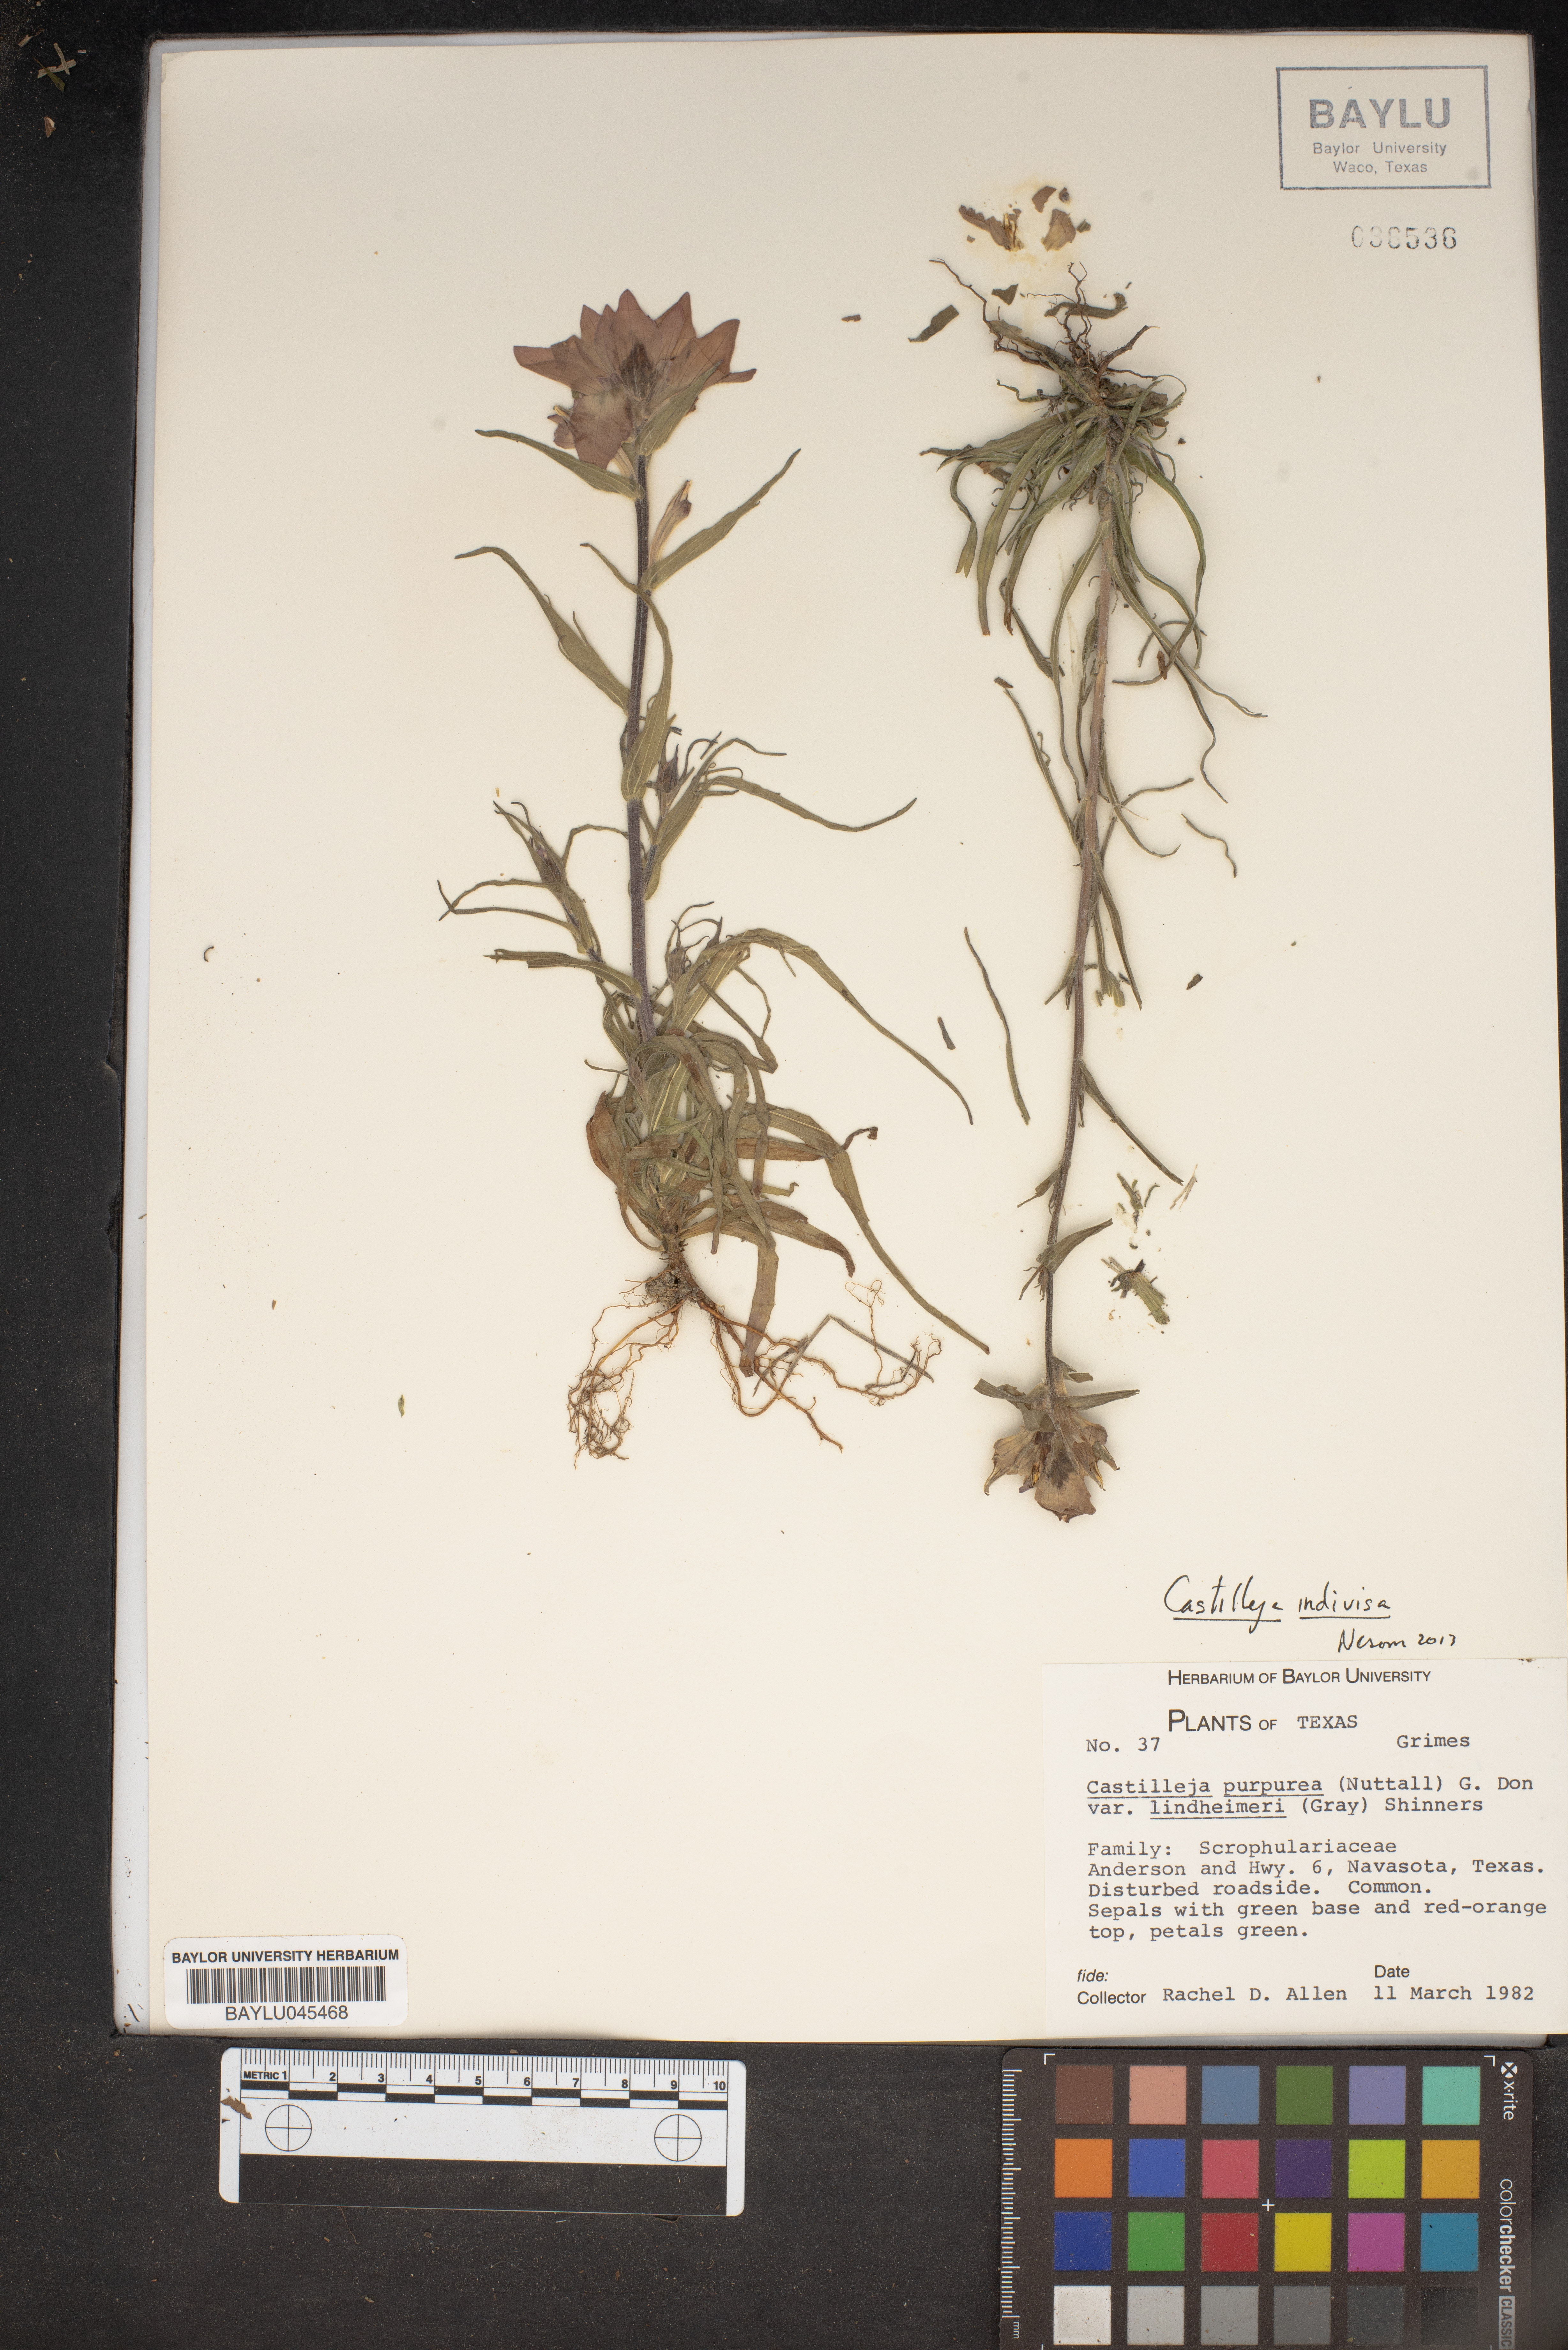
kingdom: Plantae
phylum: Tracheophyta
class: Magnoliopsida
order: Lamiales
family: Orobanchaceae
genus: Castilleja
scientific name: Castilleja lindheimeri
